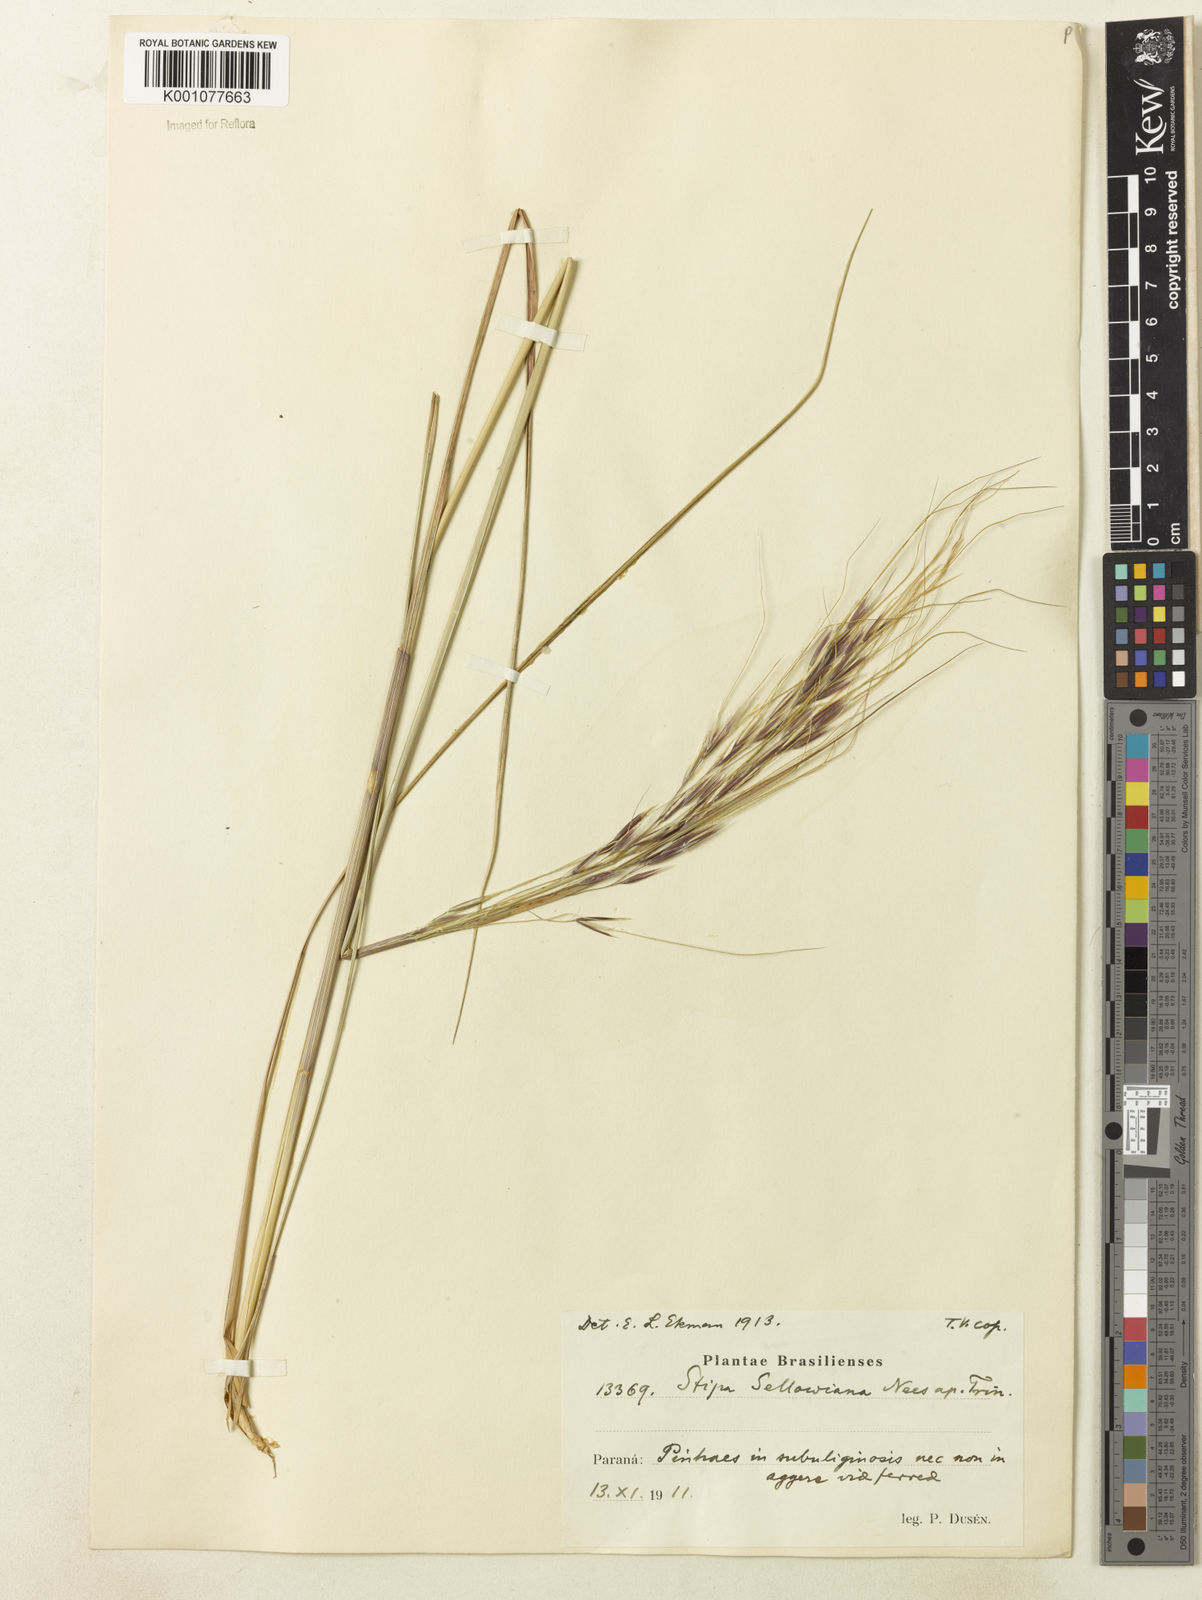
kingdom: Plantae
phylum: Tracheophyta
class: Liliopsida
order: Poales
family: Poaceae
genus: Nassella
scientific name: Nassella
